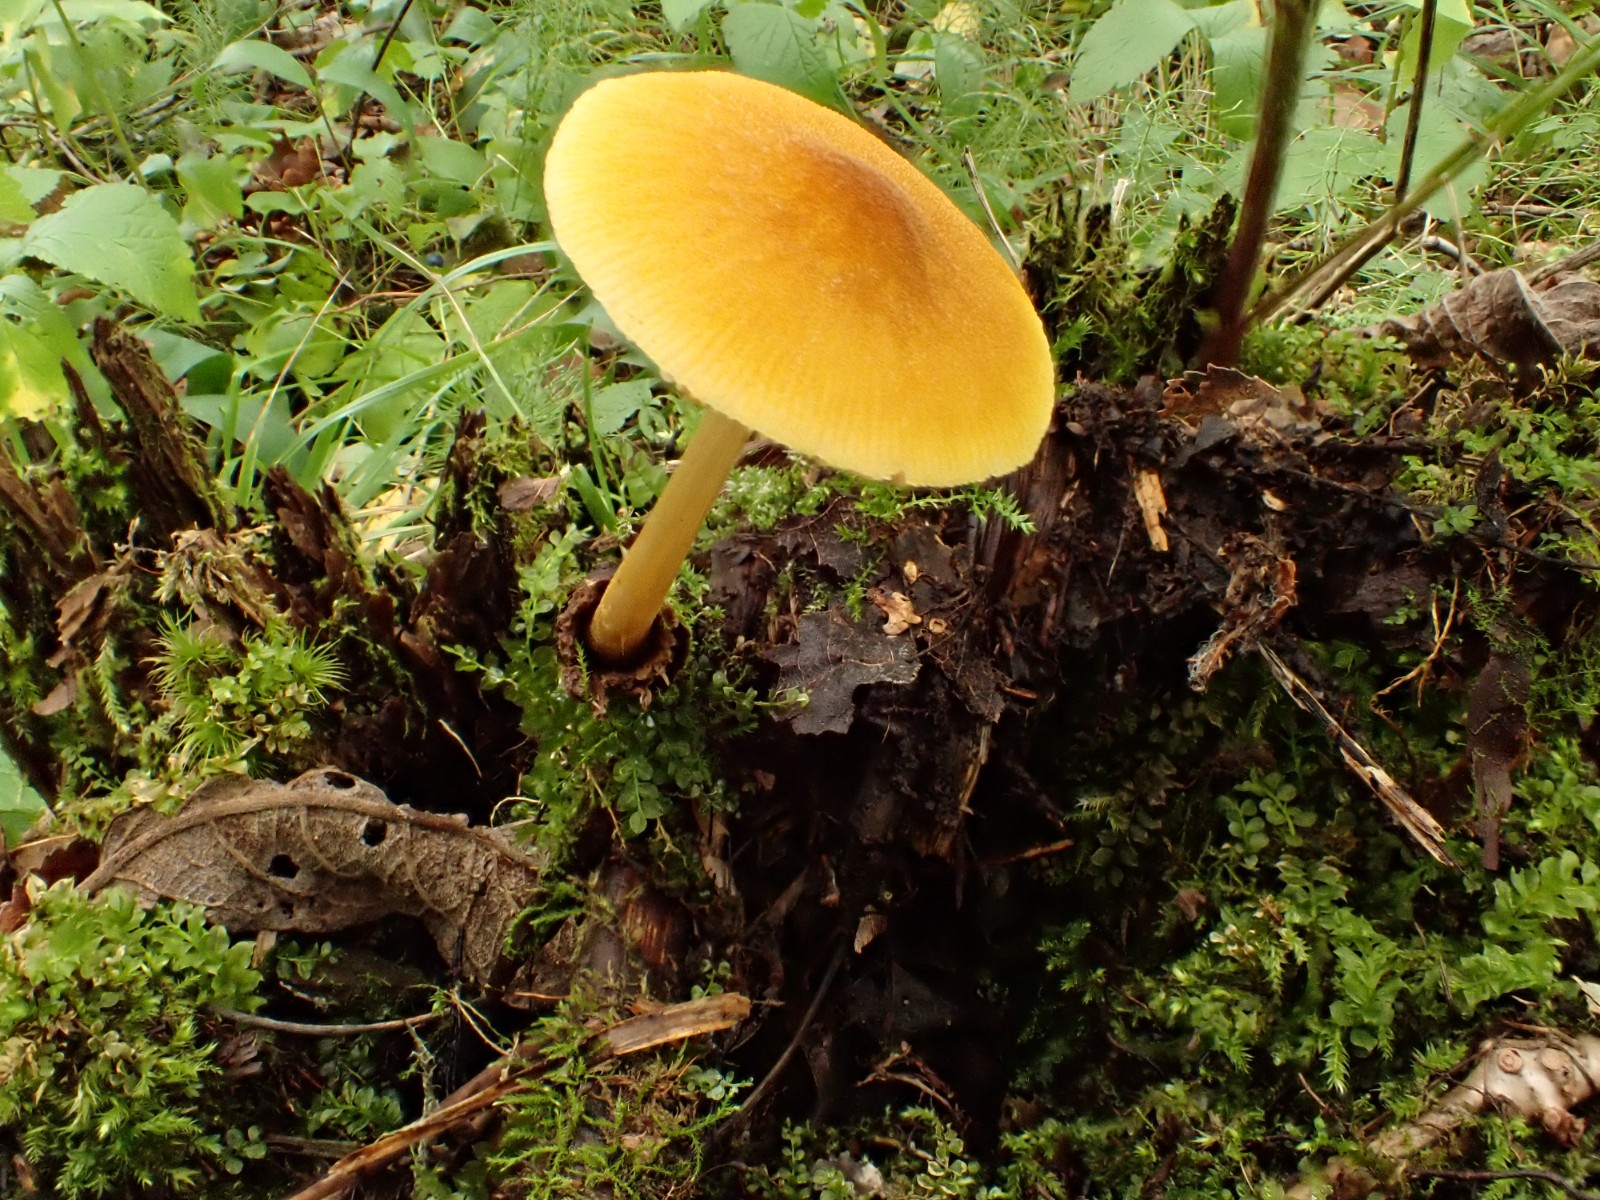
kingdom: Fungi
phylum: Basidiomycota
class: Agaricomycetes
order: Agaricales
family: Pluteaceae
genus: Pluteus
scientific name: Pluteus leoninus
